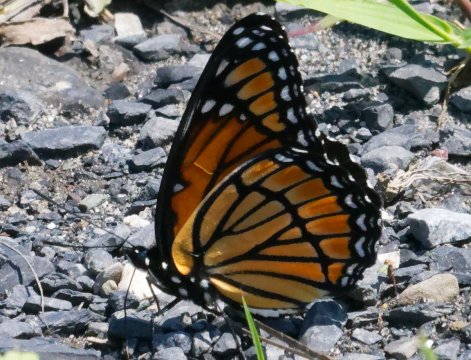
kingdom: Animalia
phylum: Arthropoda
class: Insecta
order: Lepidoptera
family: Nymphalidae
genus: Limenitis
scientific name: Limenitis archippus
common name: Viceroy
